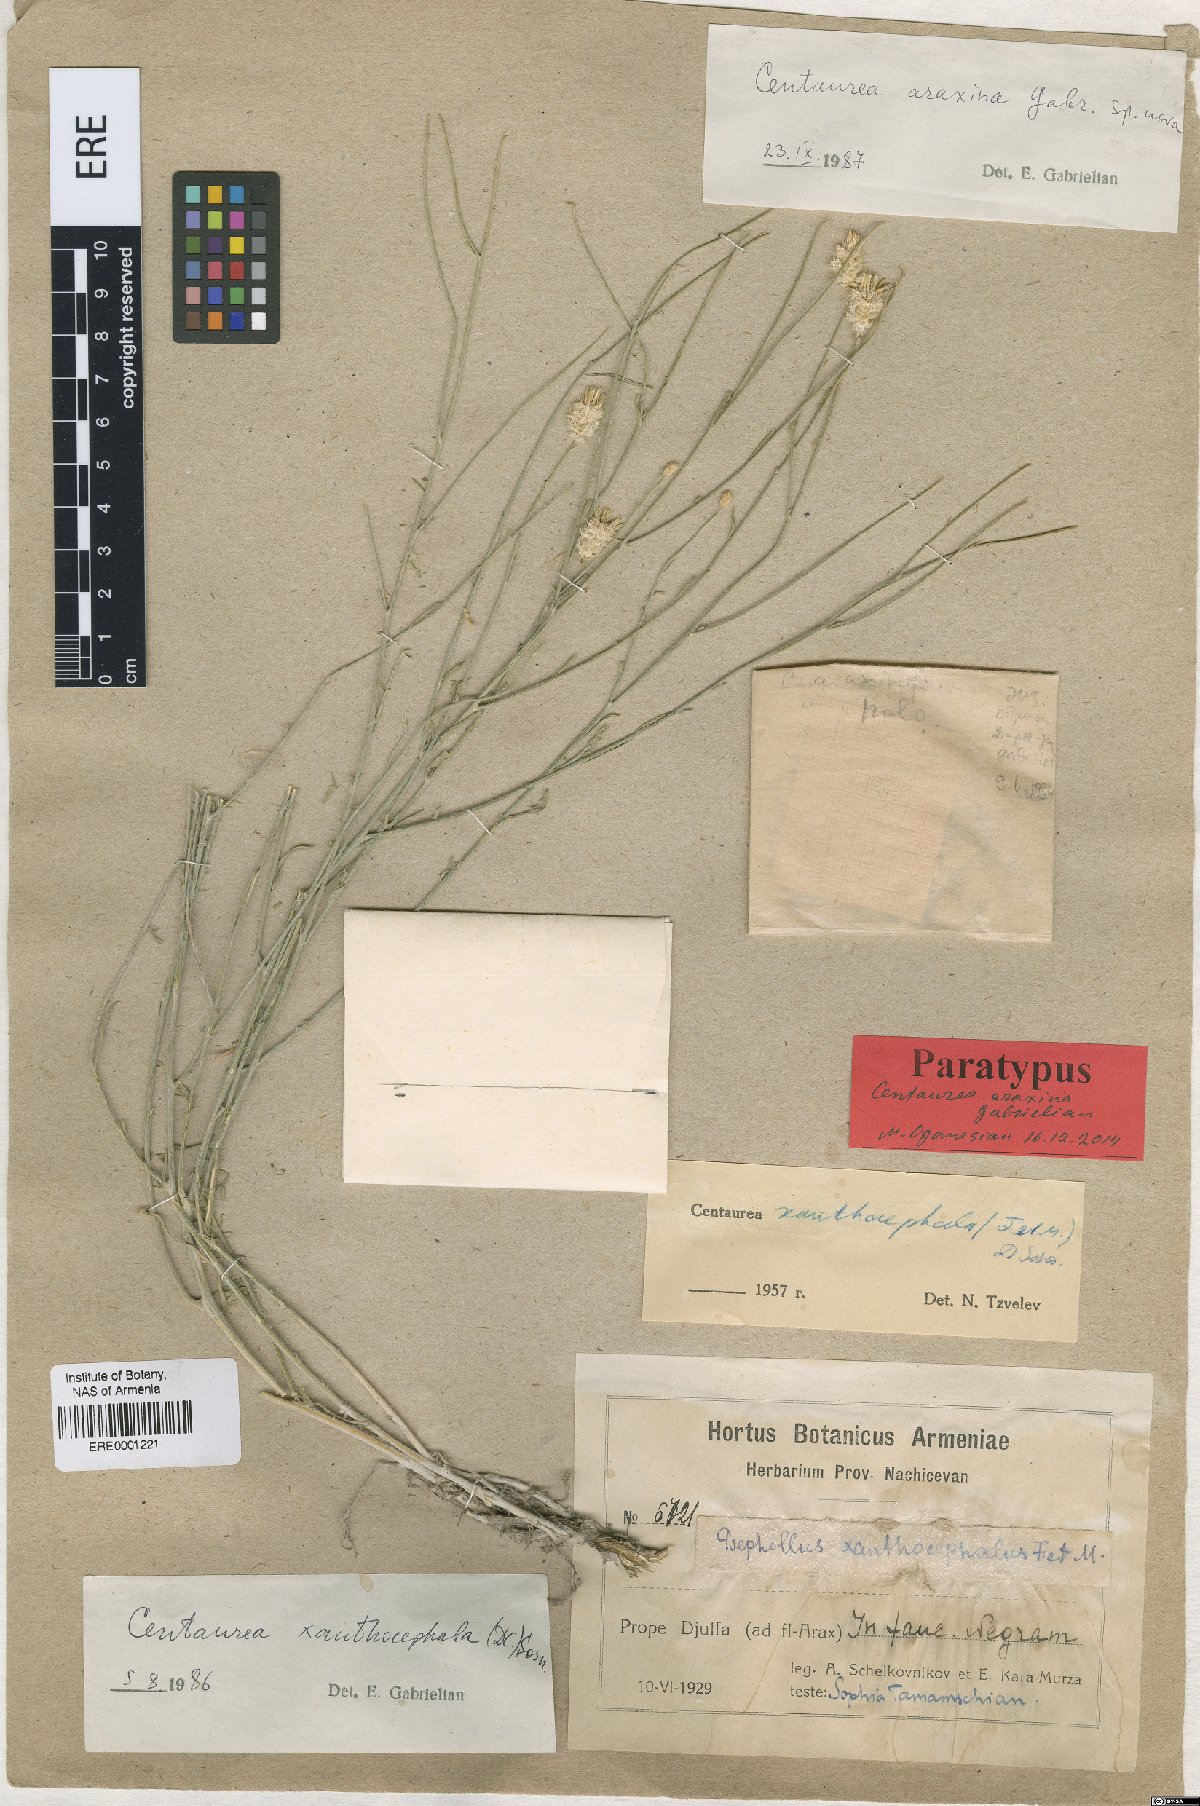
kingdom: Plantae
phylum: Tracheophyta
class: Magnoliopsida
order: Asterales
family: Asteraceae
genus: Psephellus
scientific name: Psephellus araxinus
